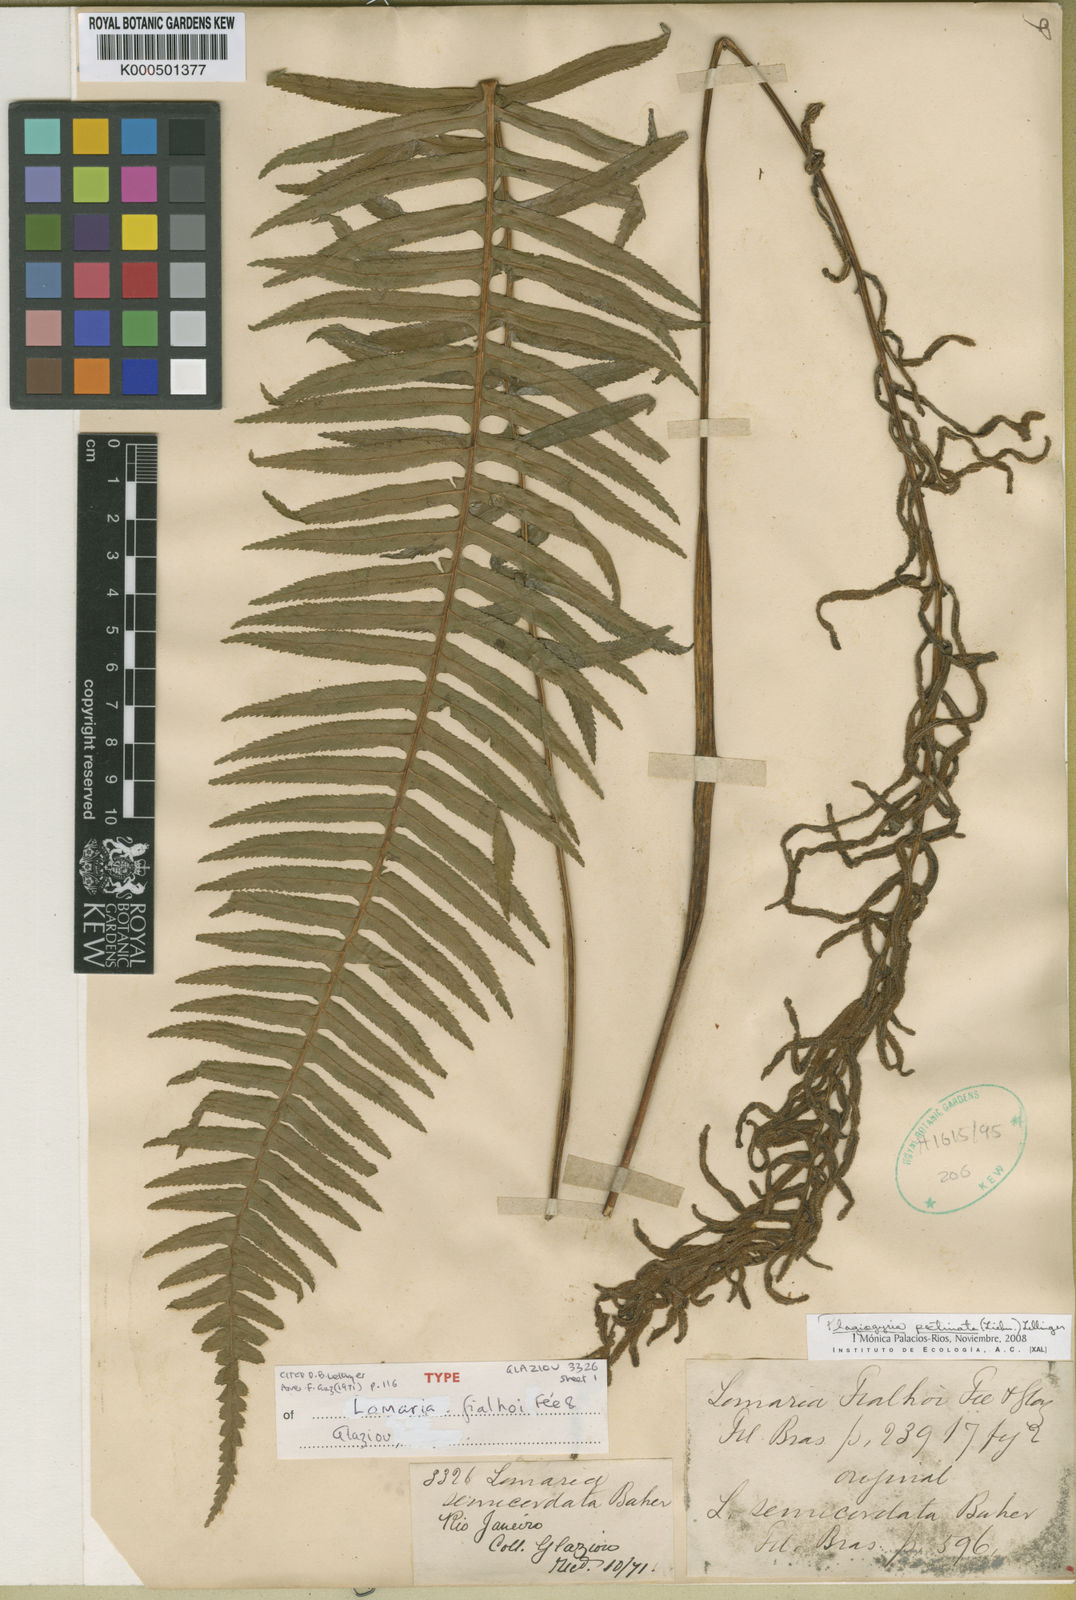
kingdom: Plantae
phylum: Tracheophyta
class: Polypodiopsida
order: Cyatheales
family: Plagiogyriaceae
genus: Plagiogyria
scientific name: Plagiogyria pectinata
